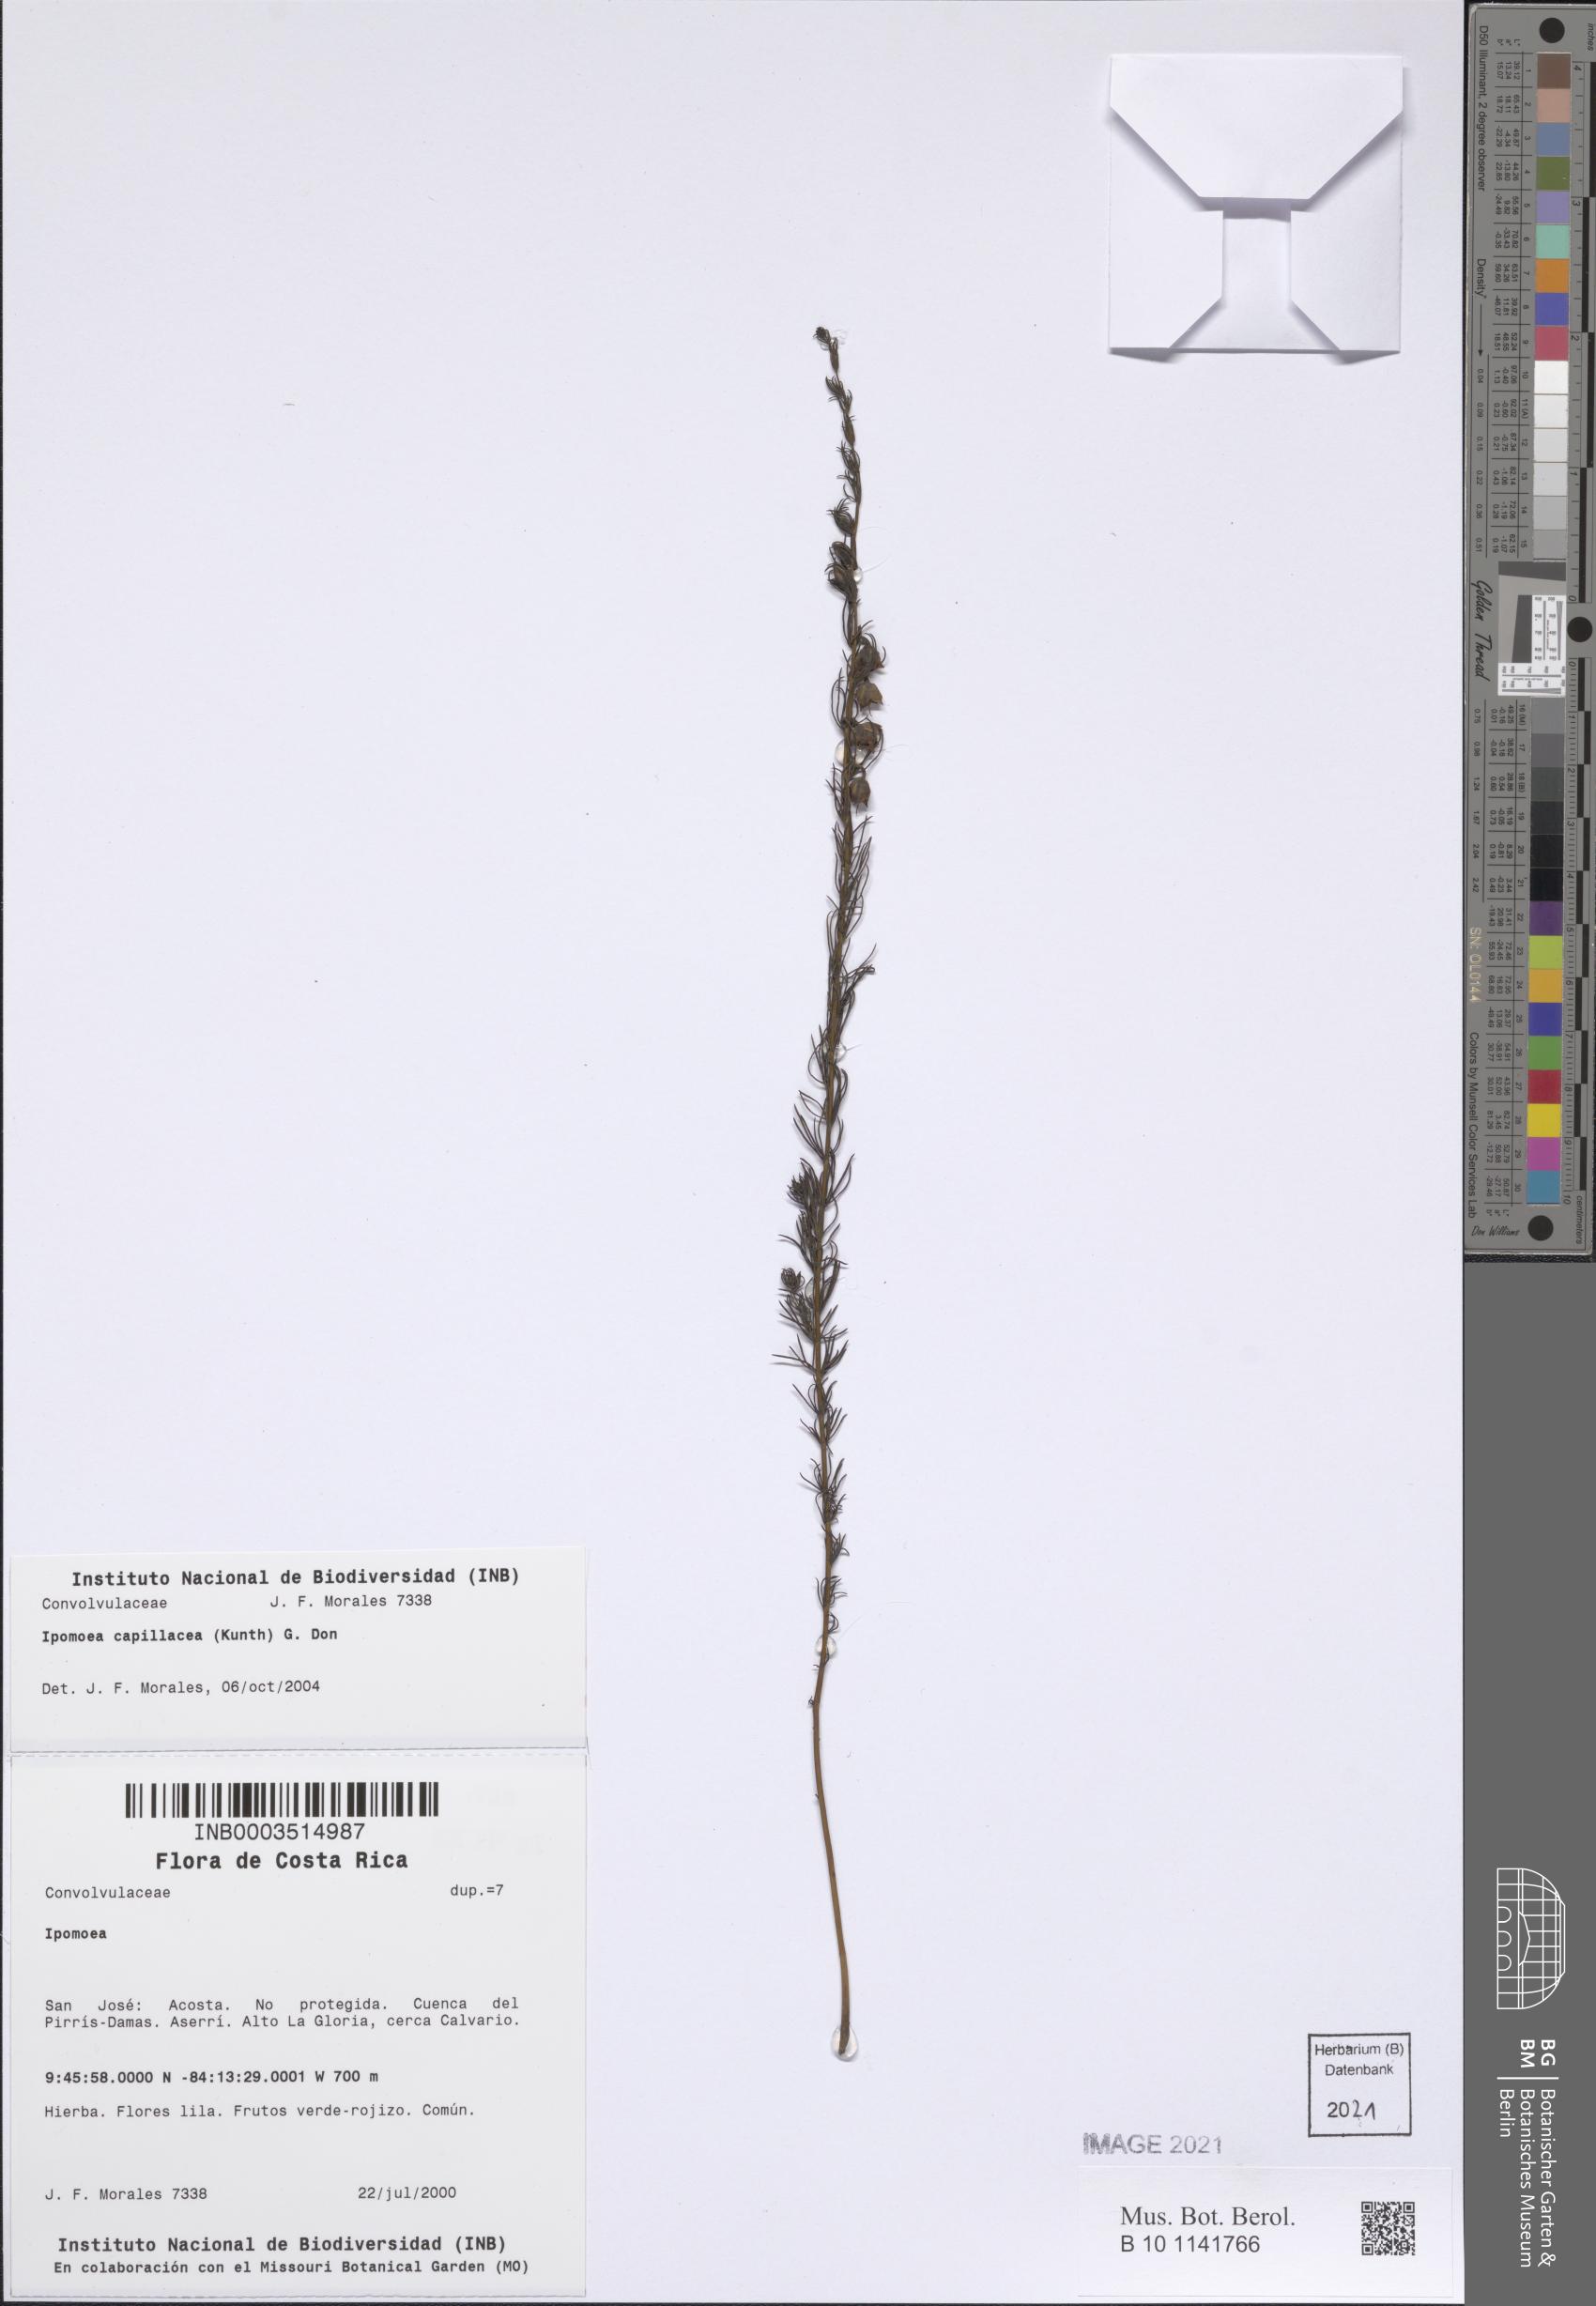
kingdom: Plantae
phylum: Tracheophyta
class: Magnoliopsida
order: Solanales
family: Convolvulaceae
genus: Ipomoea
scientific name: Ipomoea capillacea
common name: Purple morning-glory
